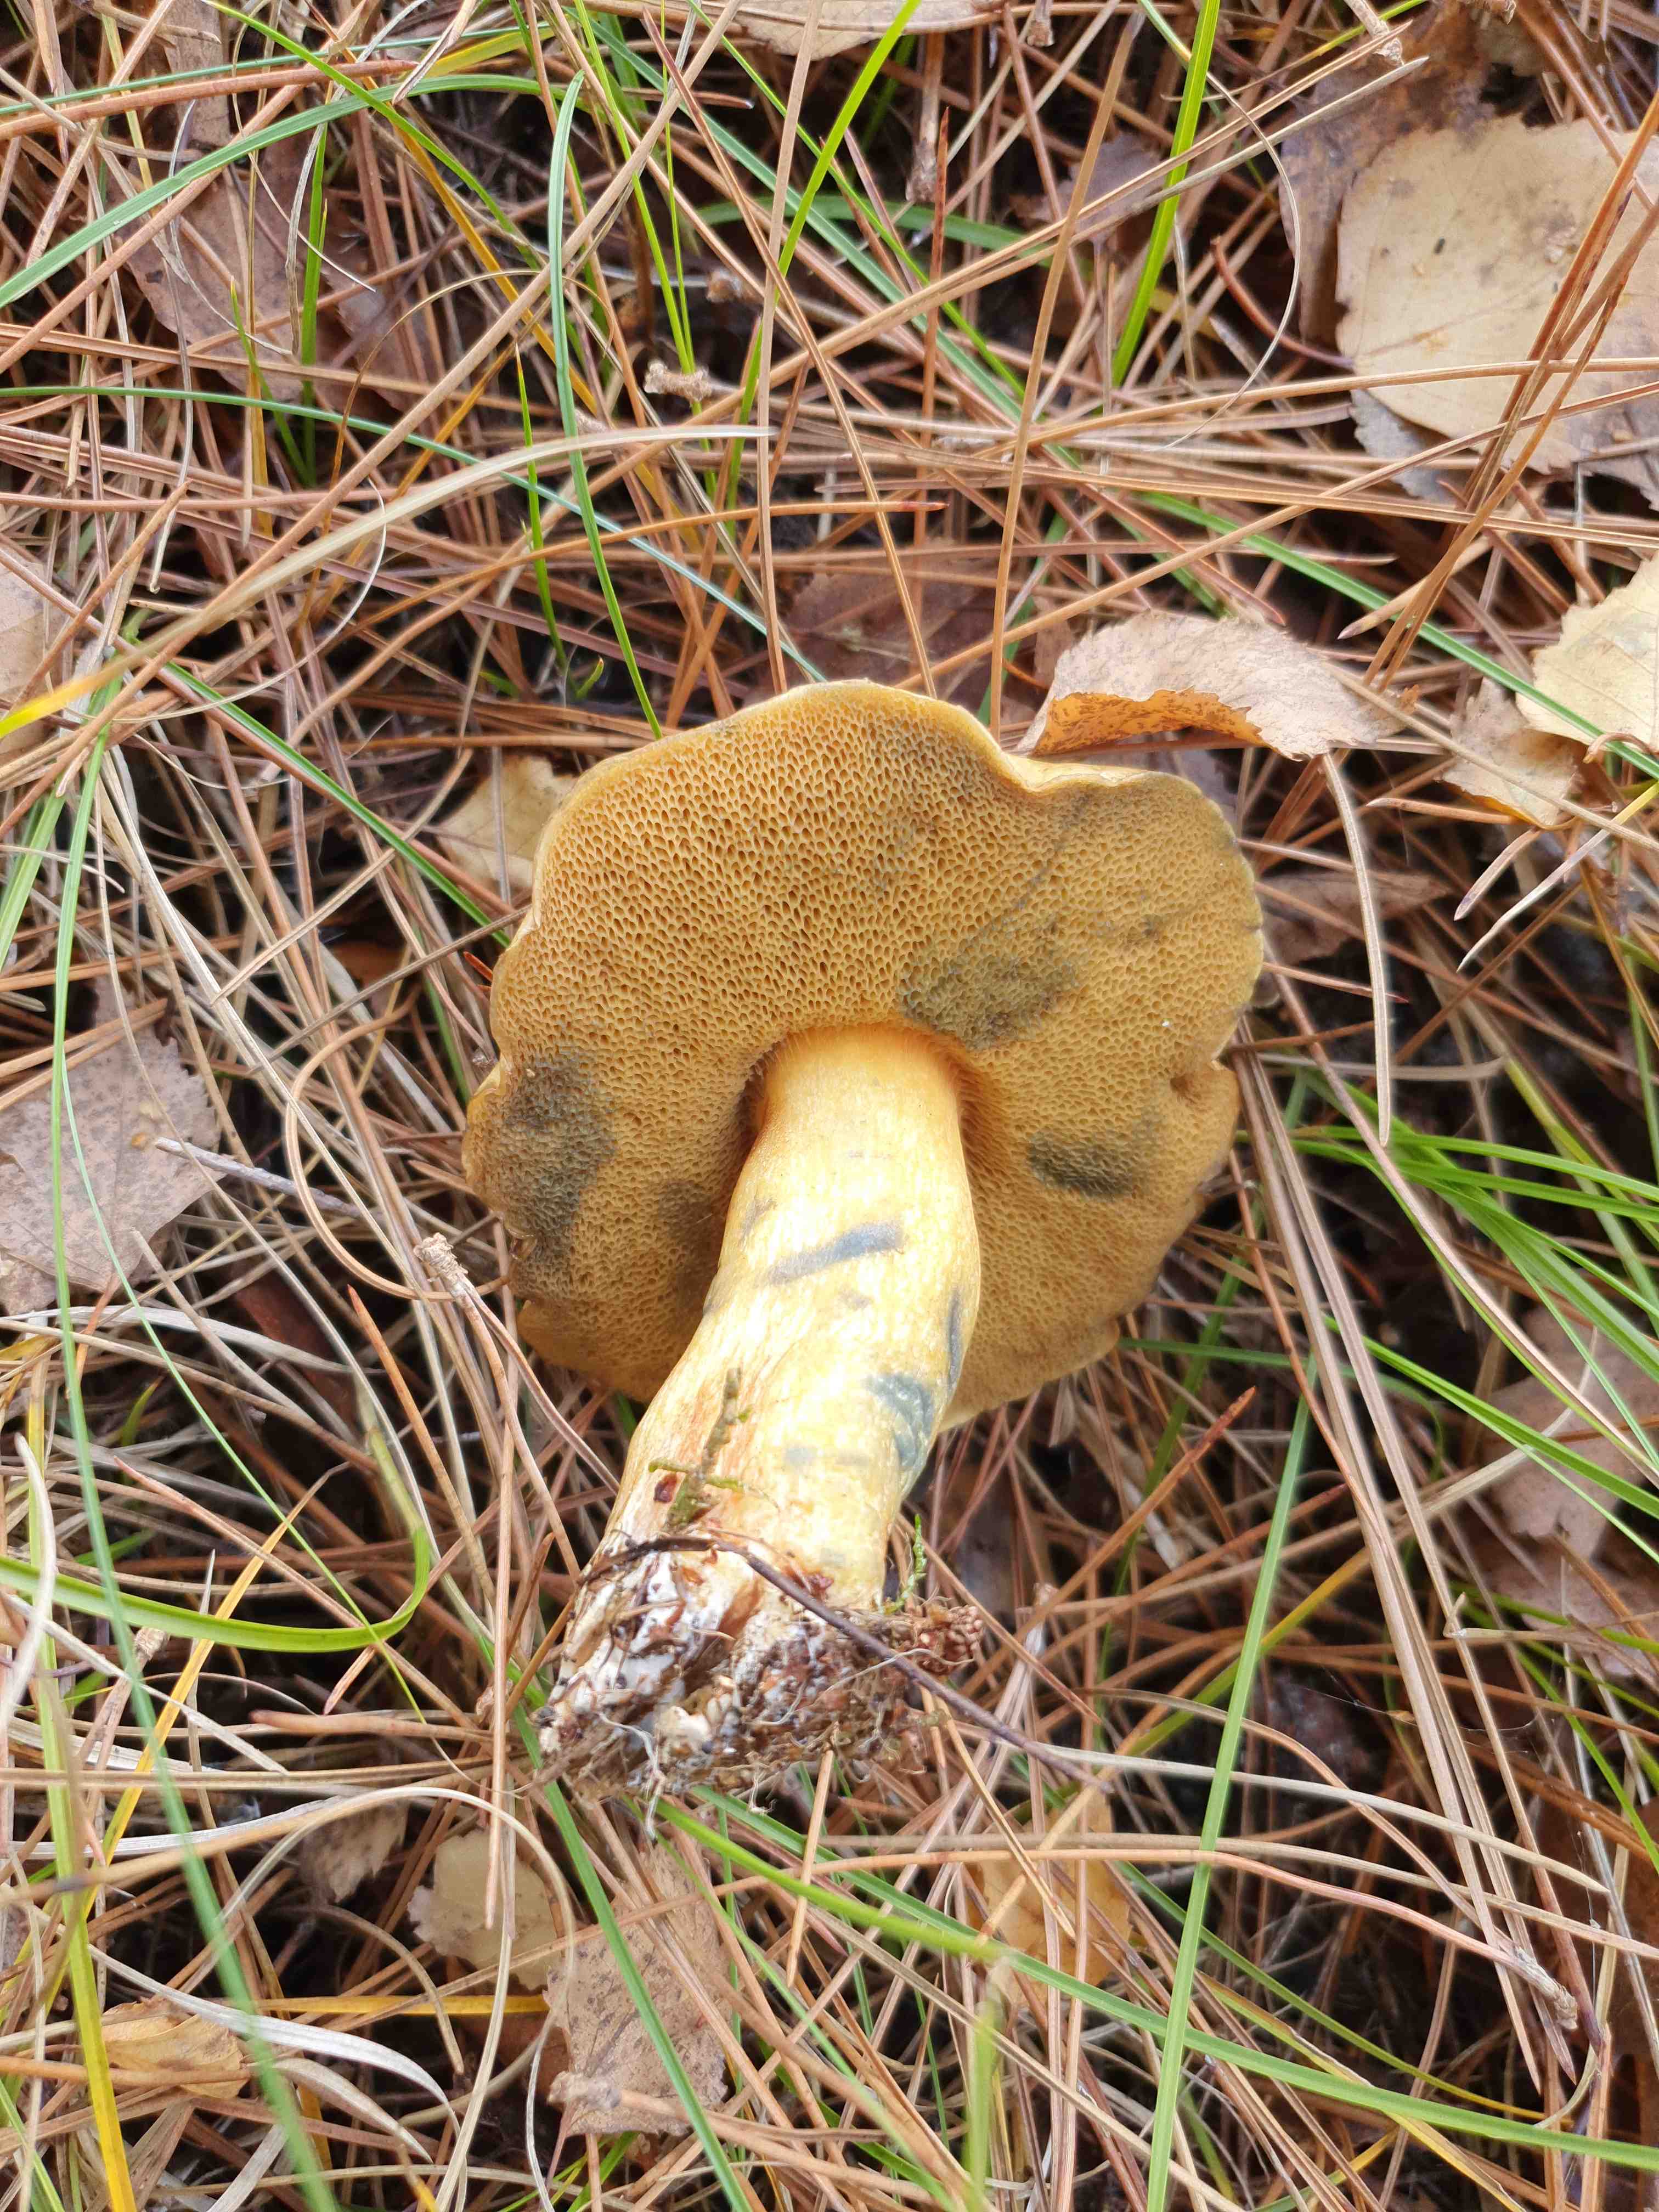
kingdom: Fungi
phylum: Basidiomycota
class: Agaricomycetes
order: Boletales
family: Suillaceae
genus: Suillus
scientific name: Suillus variegatus
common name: broget slimrørhat
